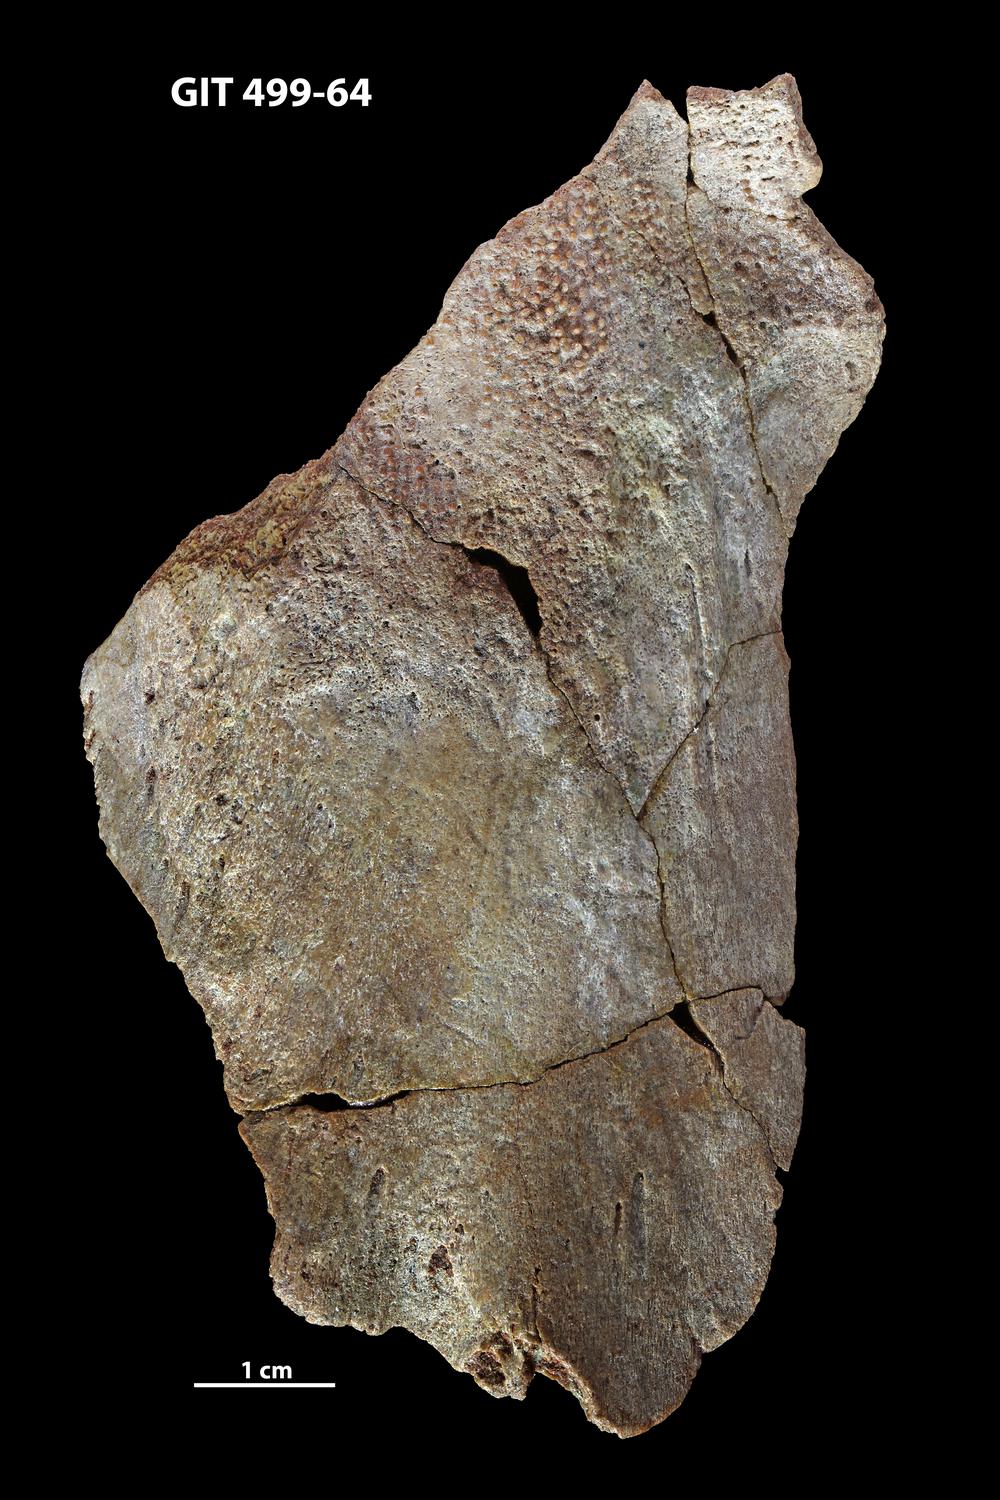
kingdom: Animalia
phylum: Chordata
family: Holoptychiidae
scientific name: Holoptychiidae
